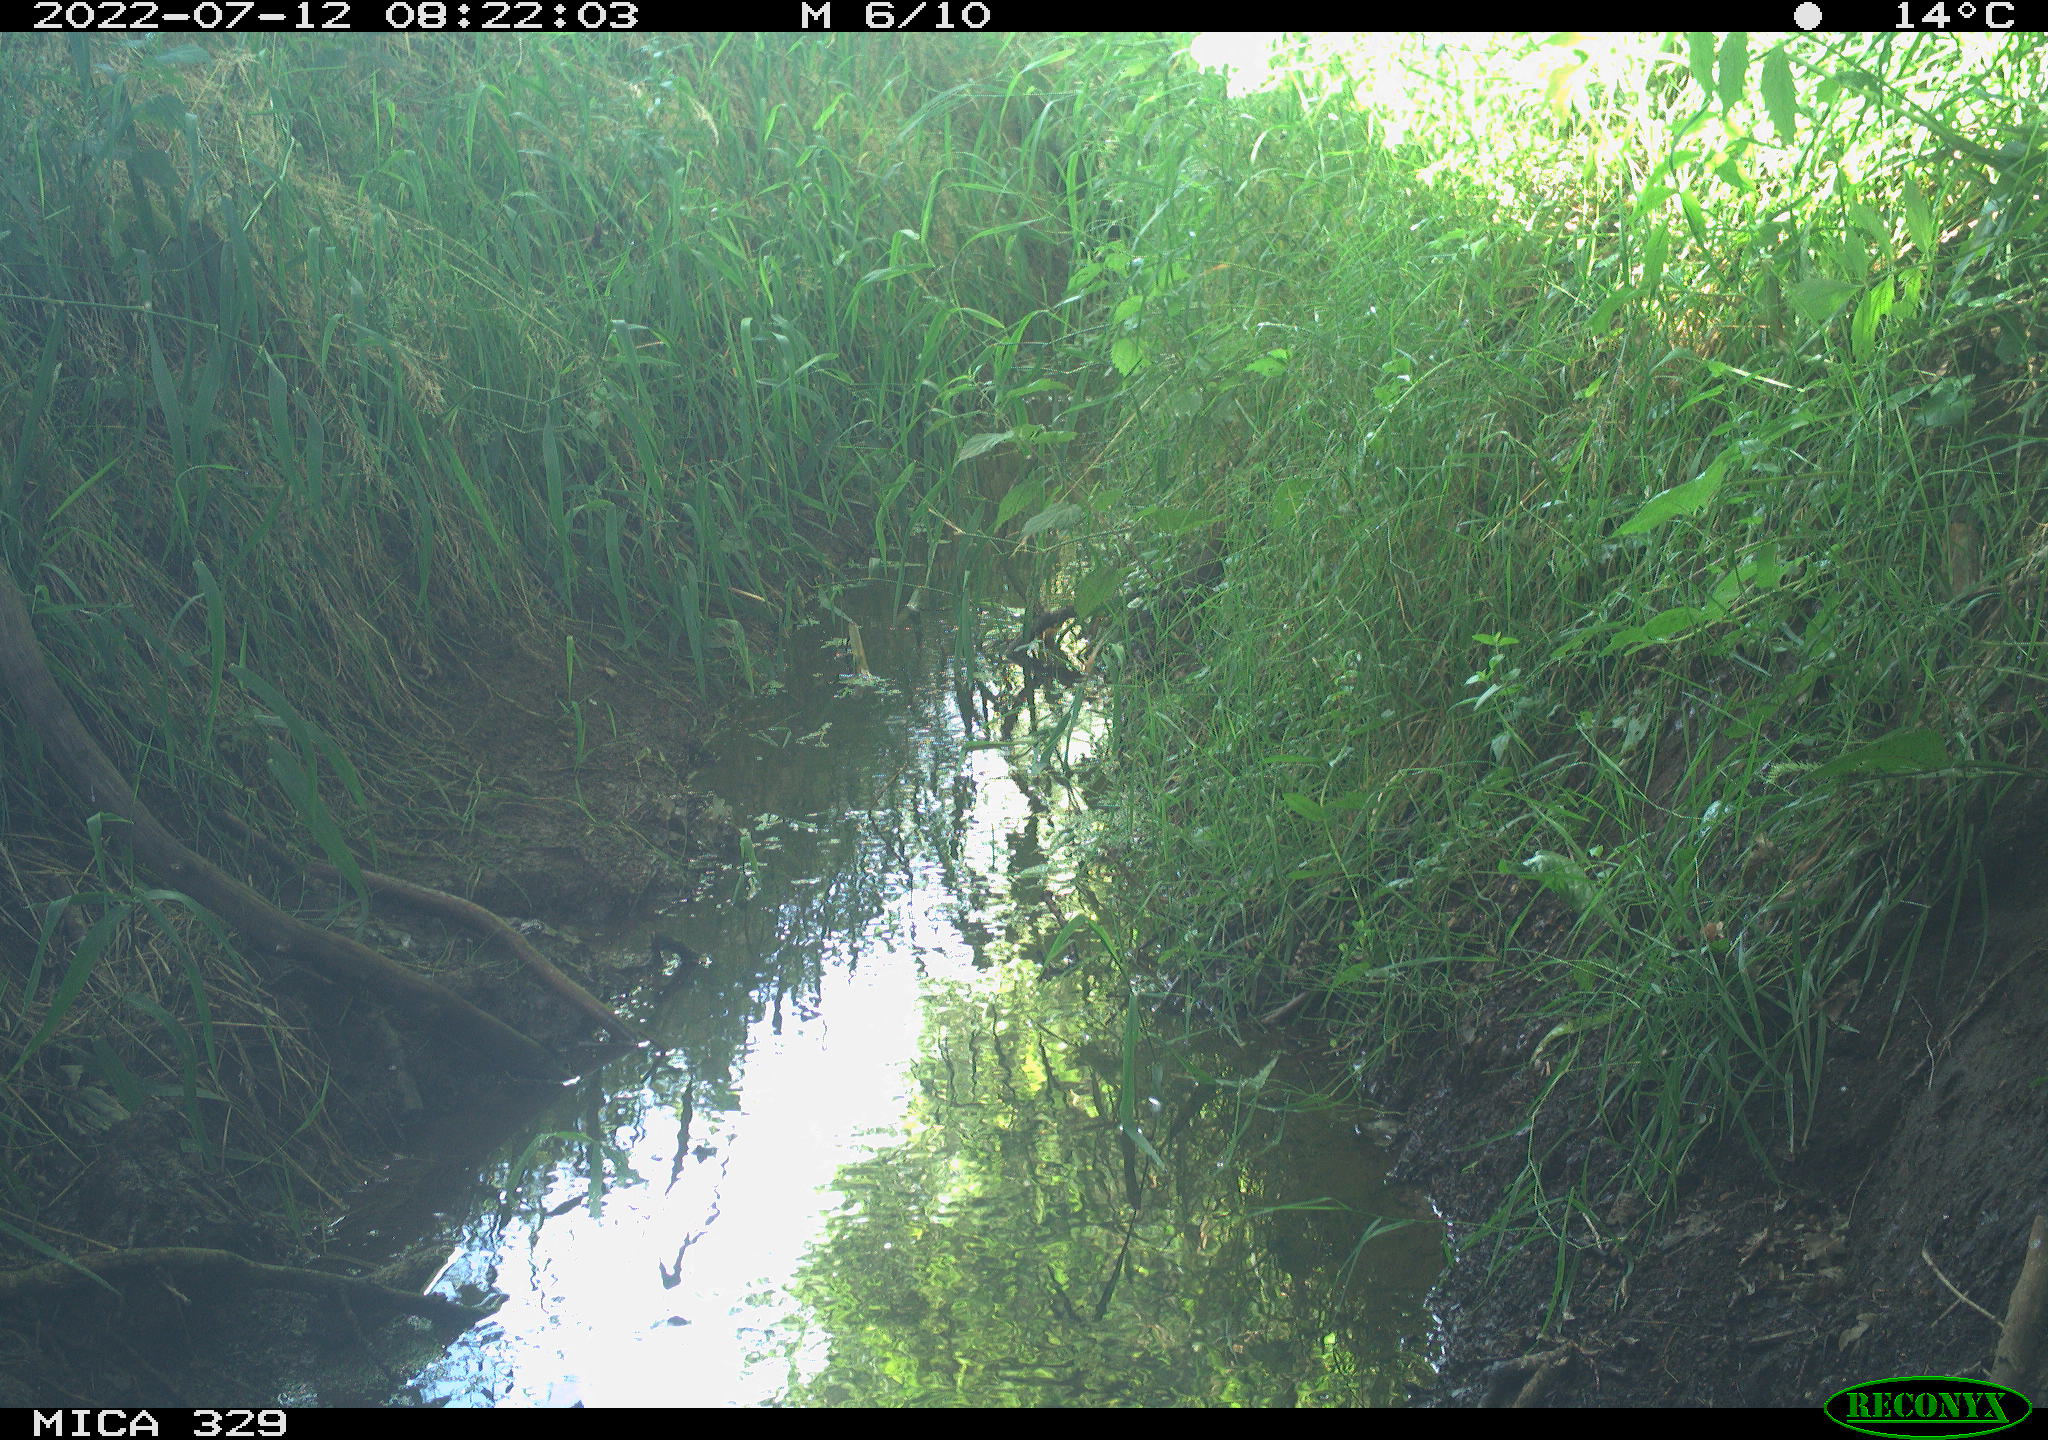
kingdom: Animalia
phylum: Chordata
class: Aves
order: Passeriformes
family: Turdidae
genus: Turdus
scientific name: Turdus merula
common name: Common blackbird
